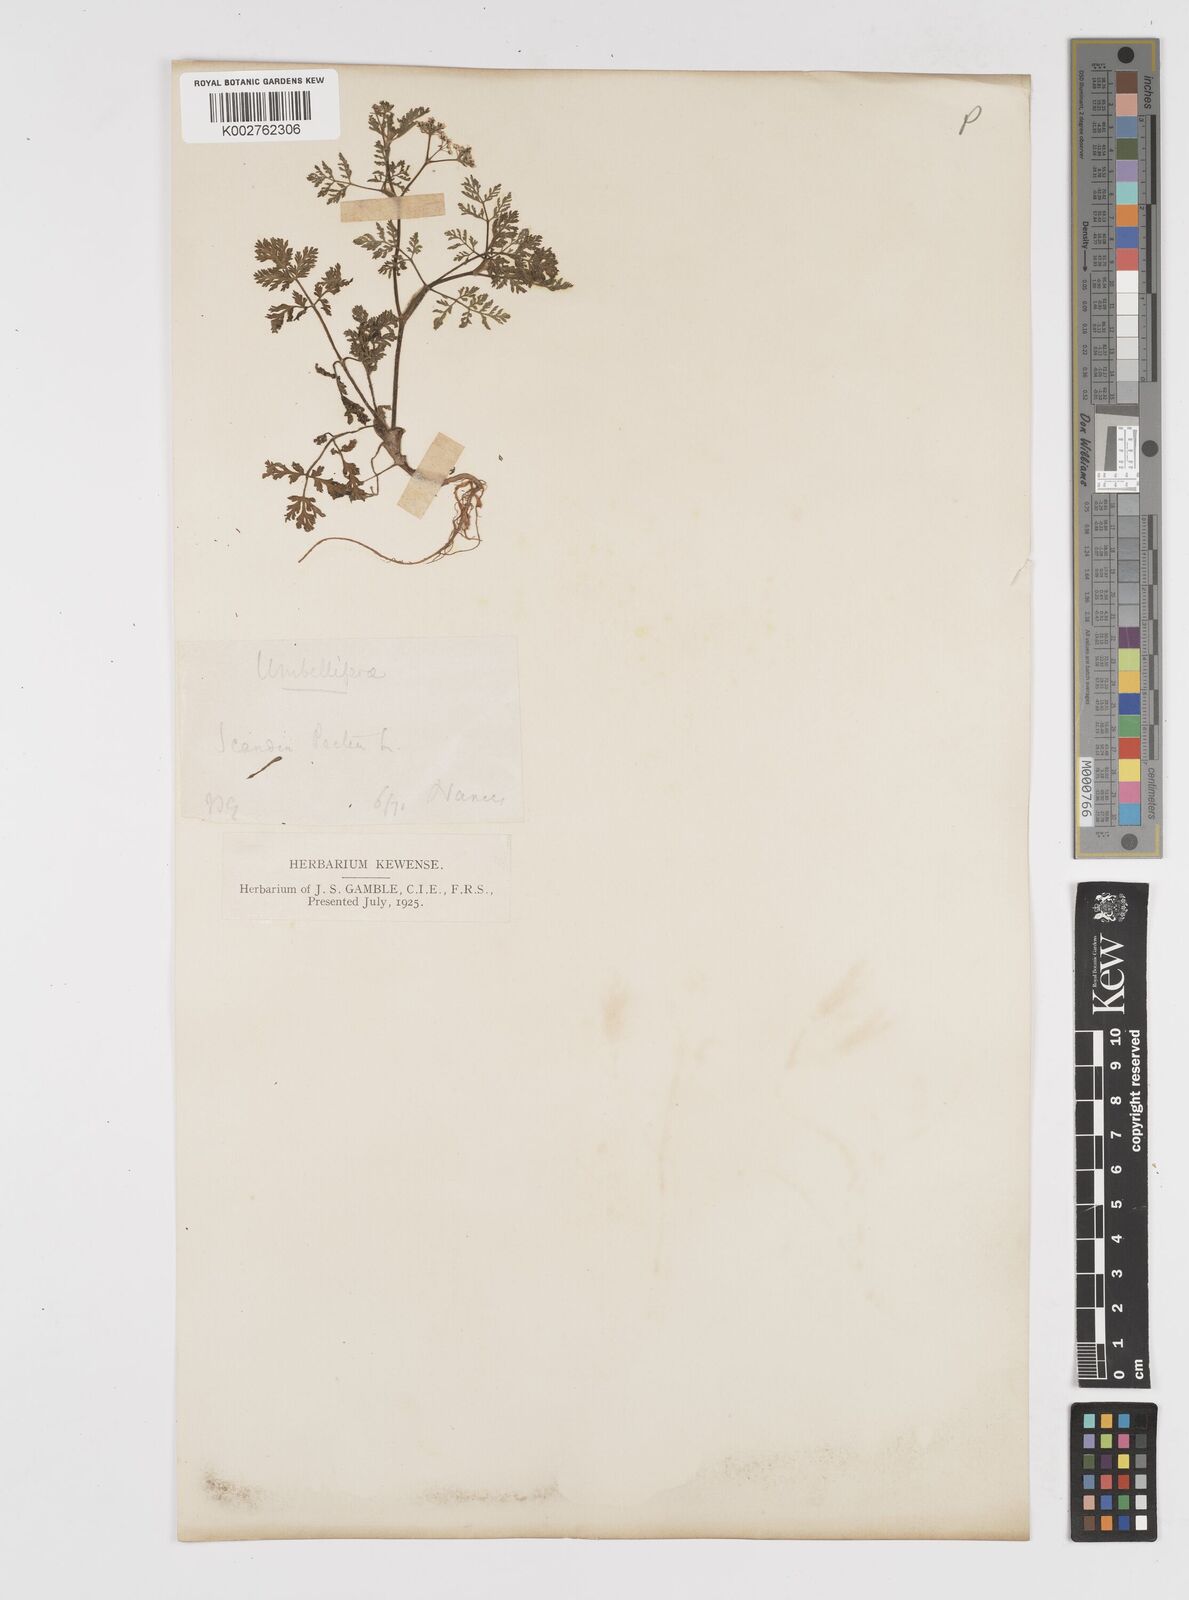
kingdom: Plantae
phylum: Tracheophyta
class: Magnoliopsida
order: Apiales
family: Apiaceae
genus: Scandix
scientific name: Scandix pecten-veneris
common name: Shepherd's-needle
